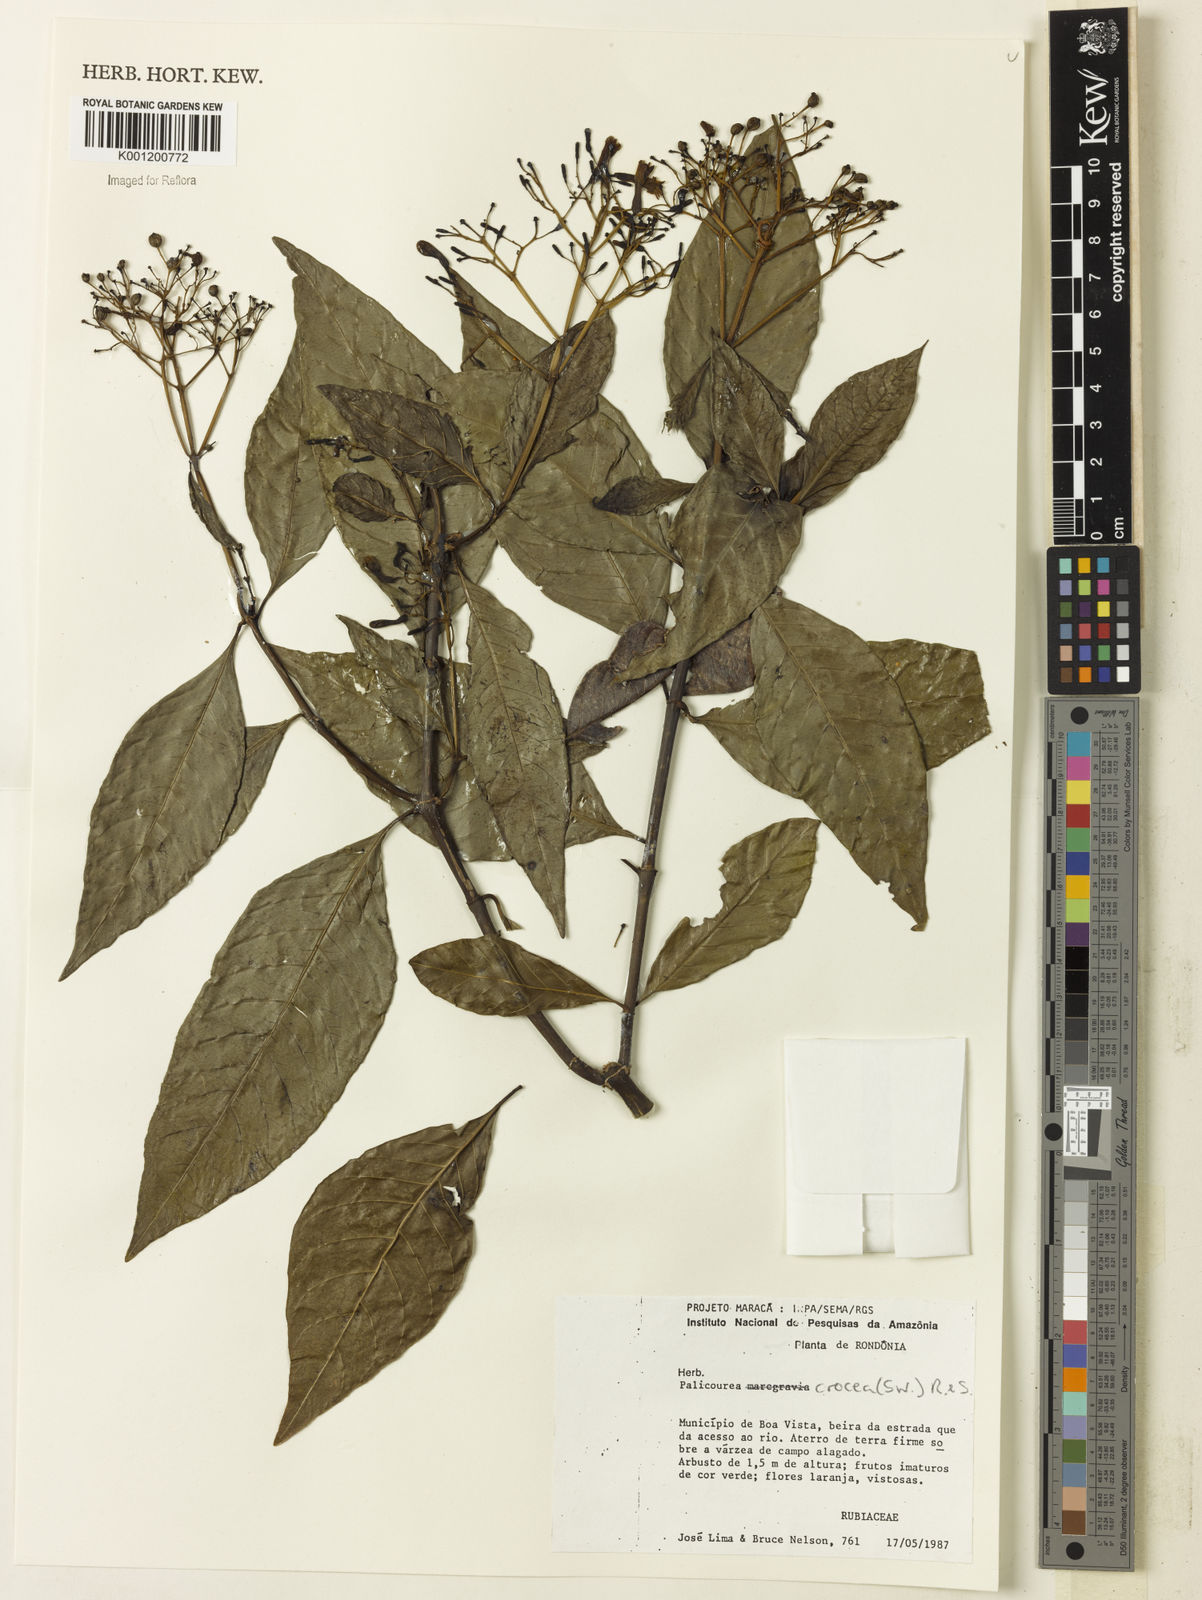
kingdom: Plantae
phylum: Tracheophyta
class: Magnoliopsida
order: Gentianales
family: Rubiaceae
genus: Palicourea
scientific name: Palicourea crocea
